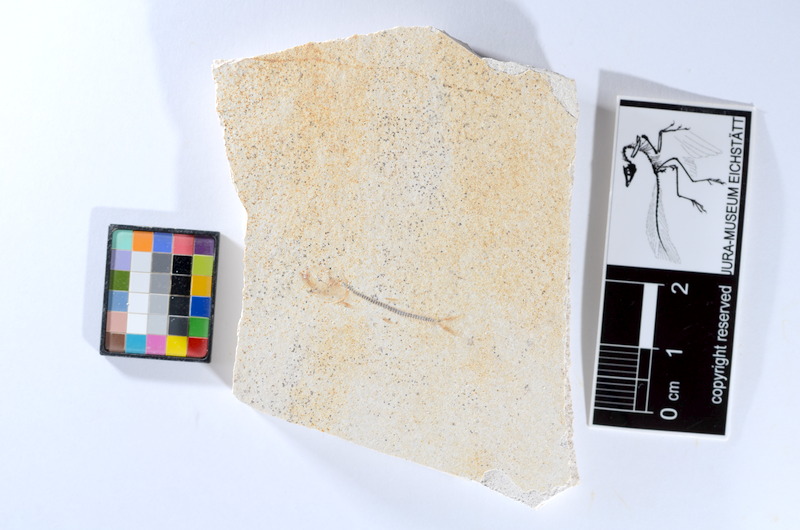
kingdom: Animalia
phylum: Chordata
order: Salmoniformes
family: Orthogonikleithridae
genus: Orthogonikleithrus
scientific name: Orthogonikleithrus hoelli
